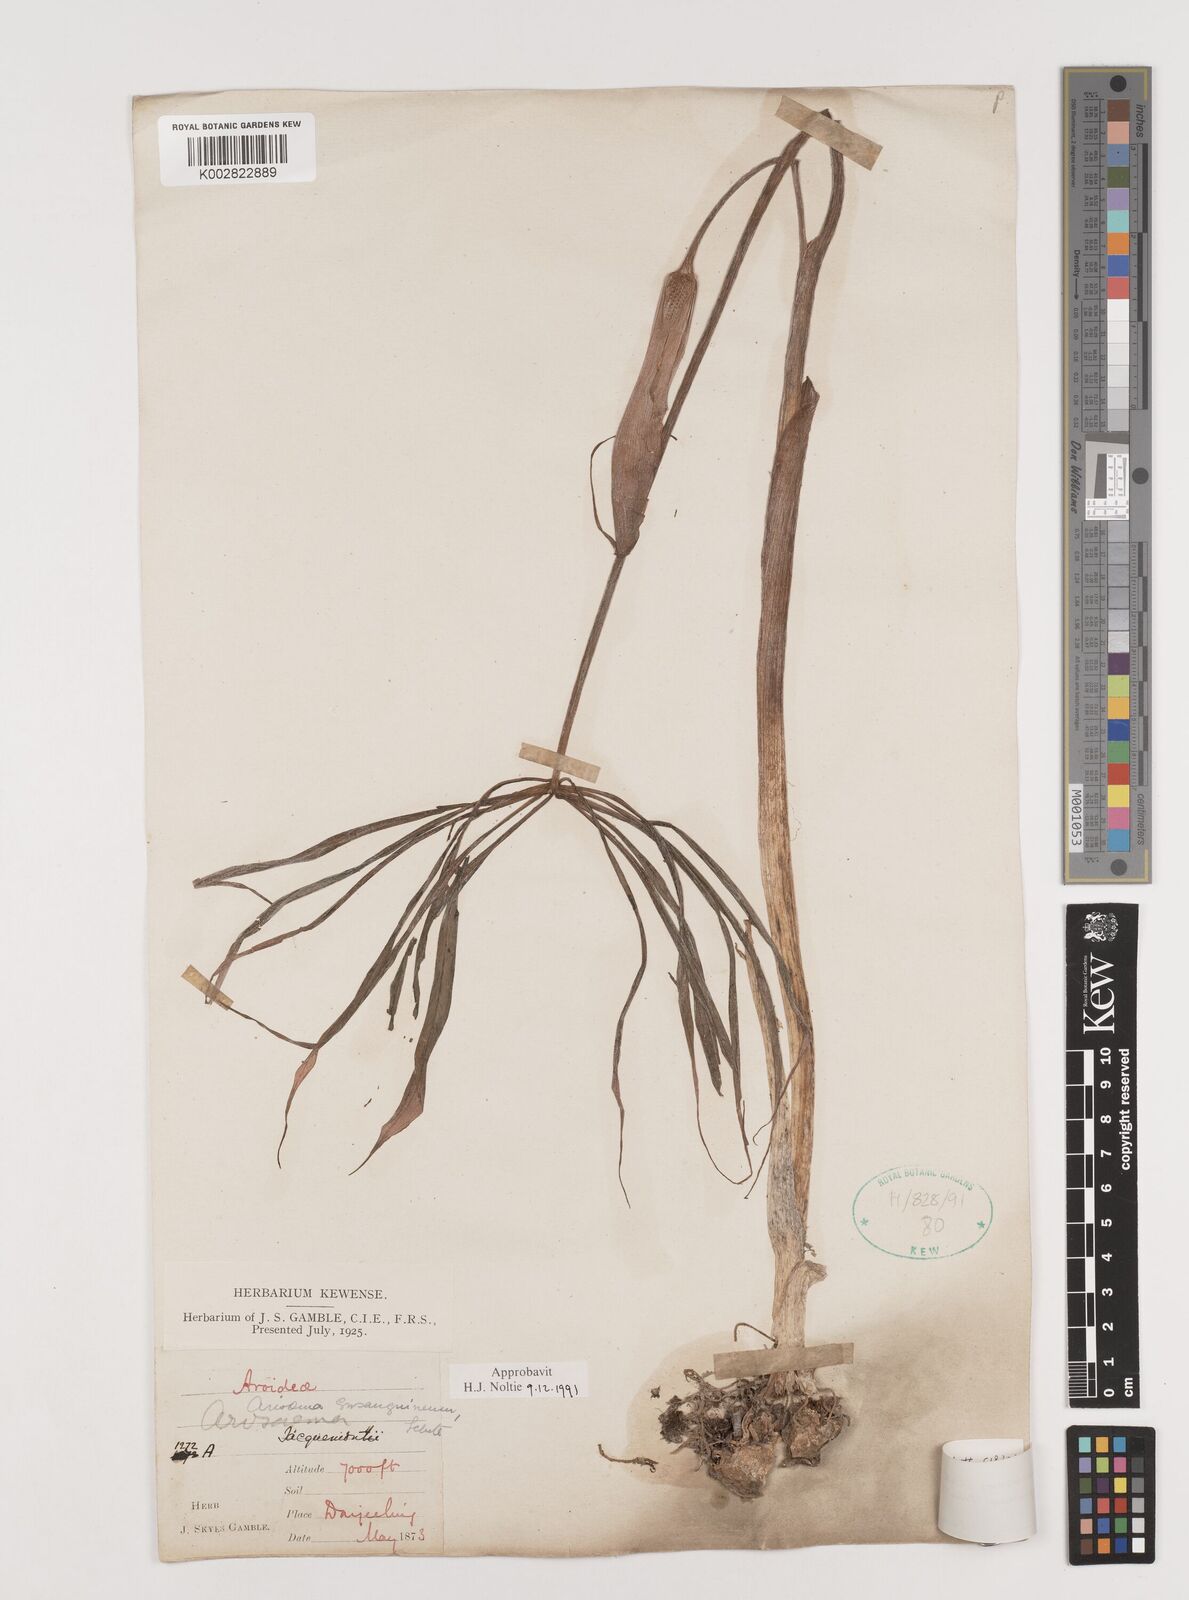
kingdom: Plantae
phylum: Tracheophyta
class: Liliopsida
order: Alismatales
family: Araceae
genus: Arisaema
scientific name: Arisaema erubescens
